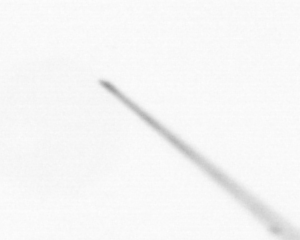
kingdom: Chromista
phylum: Ochrophyta
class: Bacillariophyceae
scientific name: Bacillariophyceae
